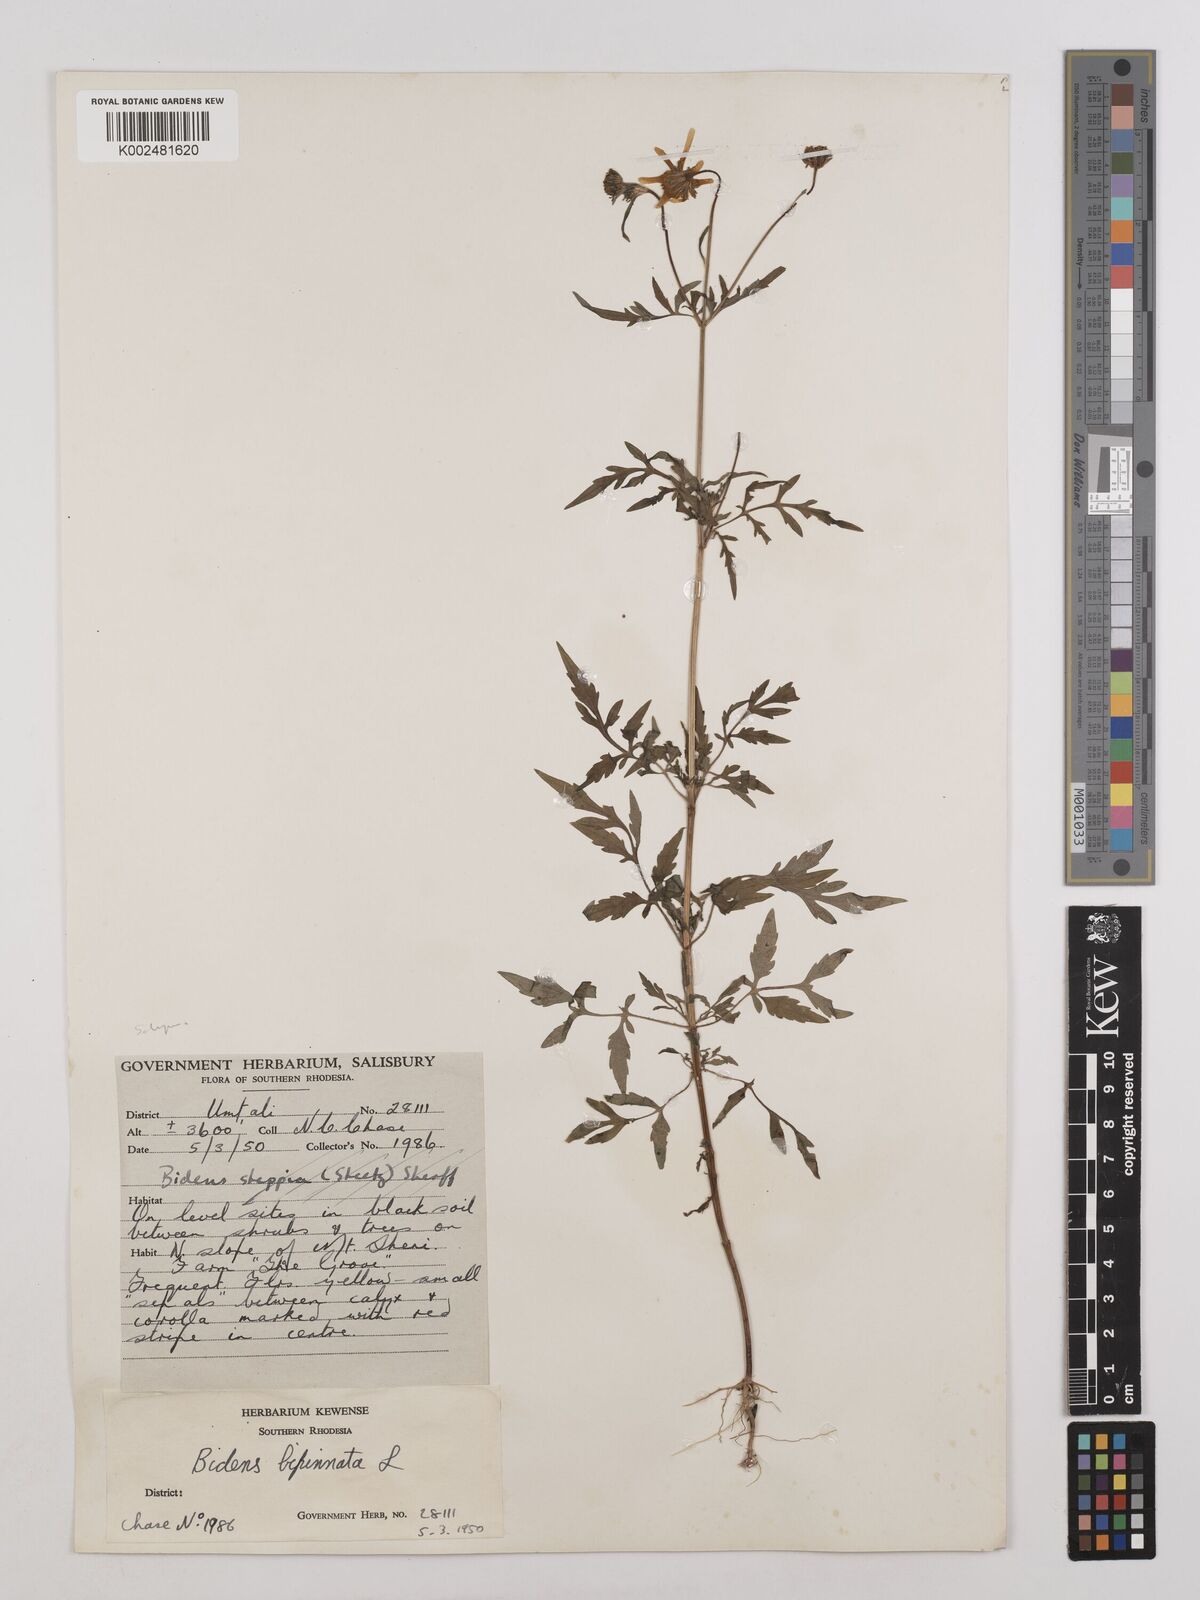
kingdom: Plantae
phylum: Tracheophyta
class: Magnoliopsida
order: Asterales
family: Asteraceae
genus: Bidens
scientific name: Bidens schimperi
